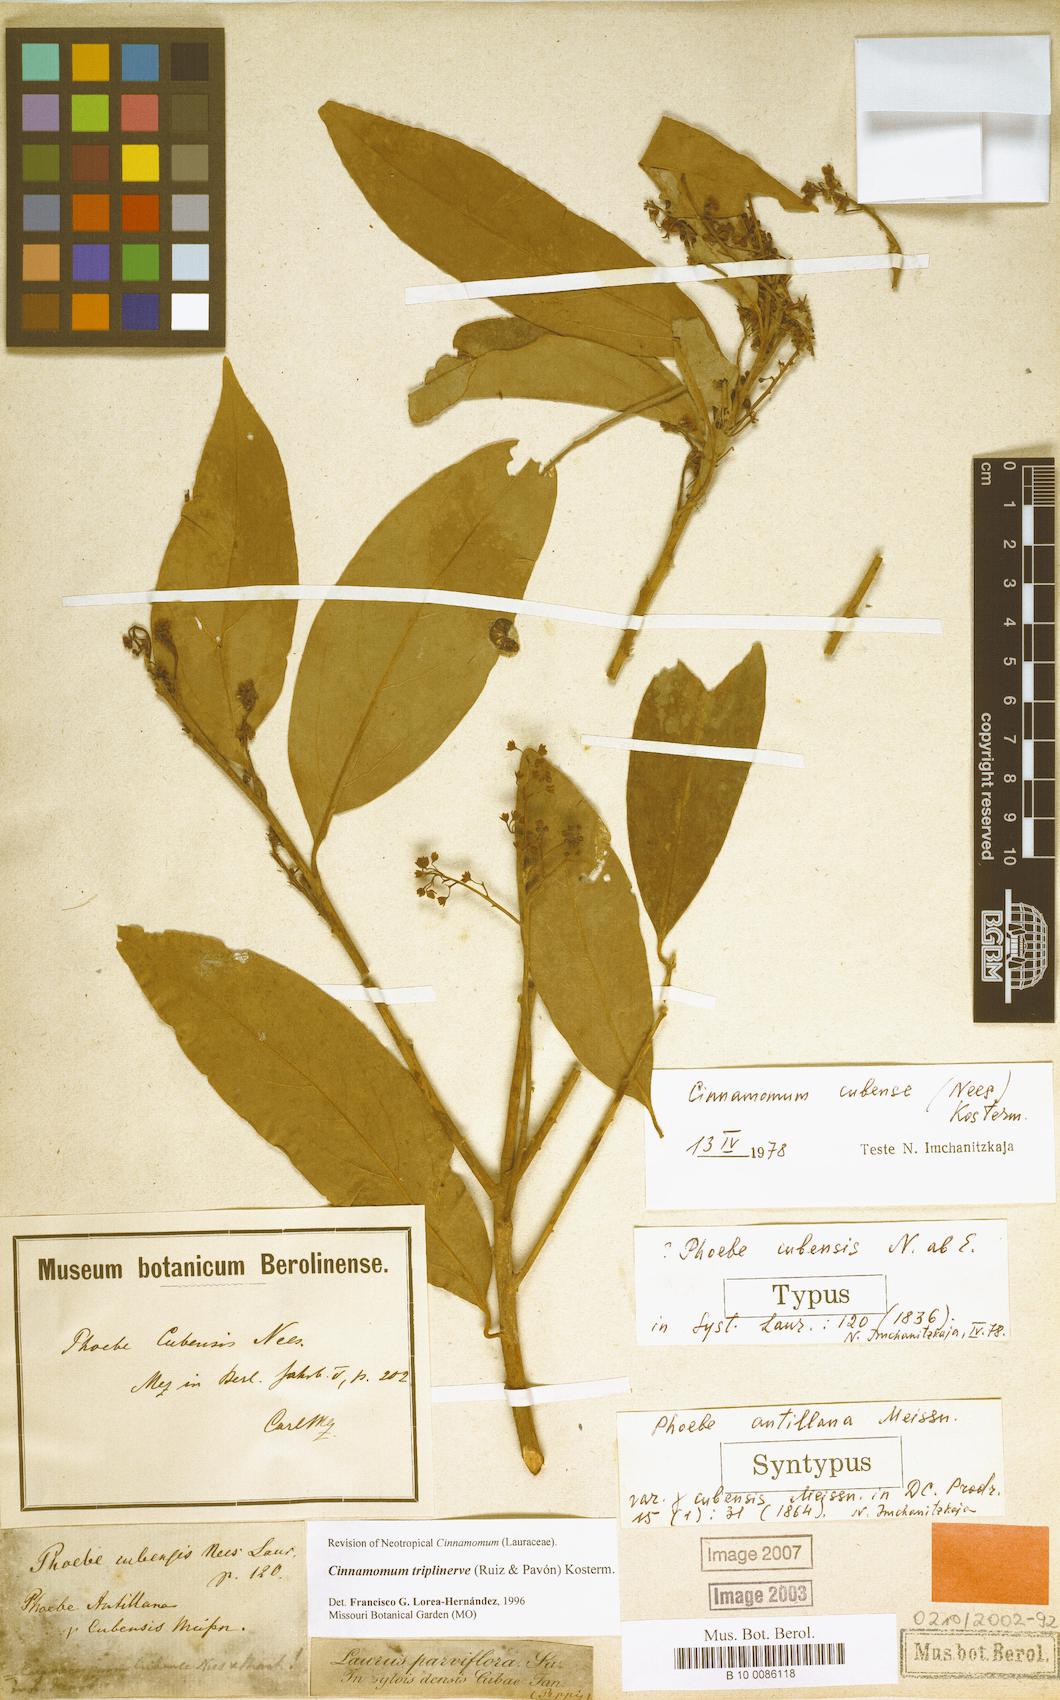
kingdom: Plantae
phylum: Tracheophyta
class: Magnoliopsida
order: Laurales
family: Lauraceae
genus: Aiouea
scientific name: Aiouea montana
